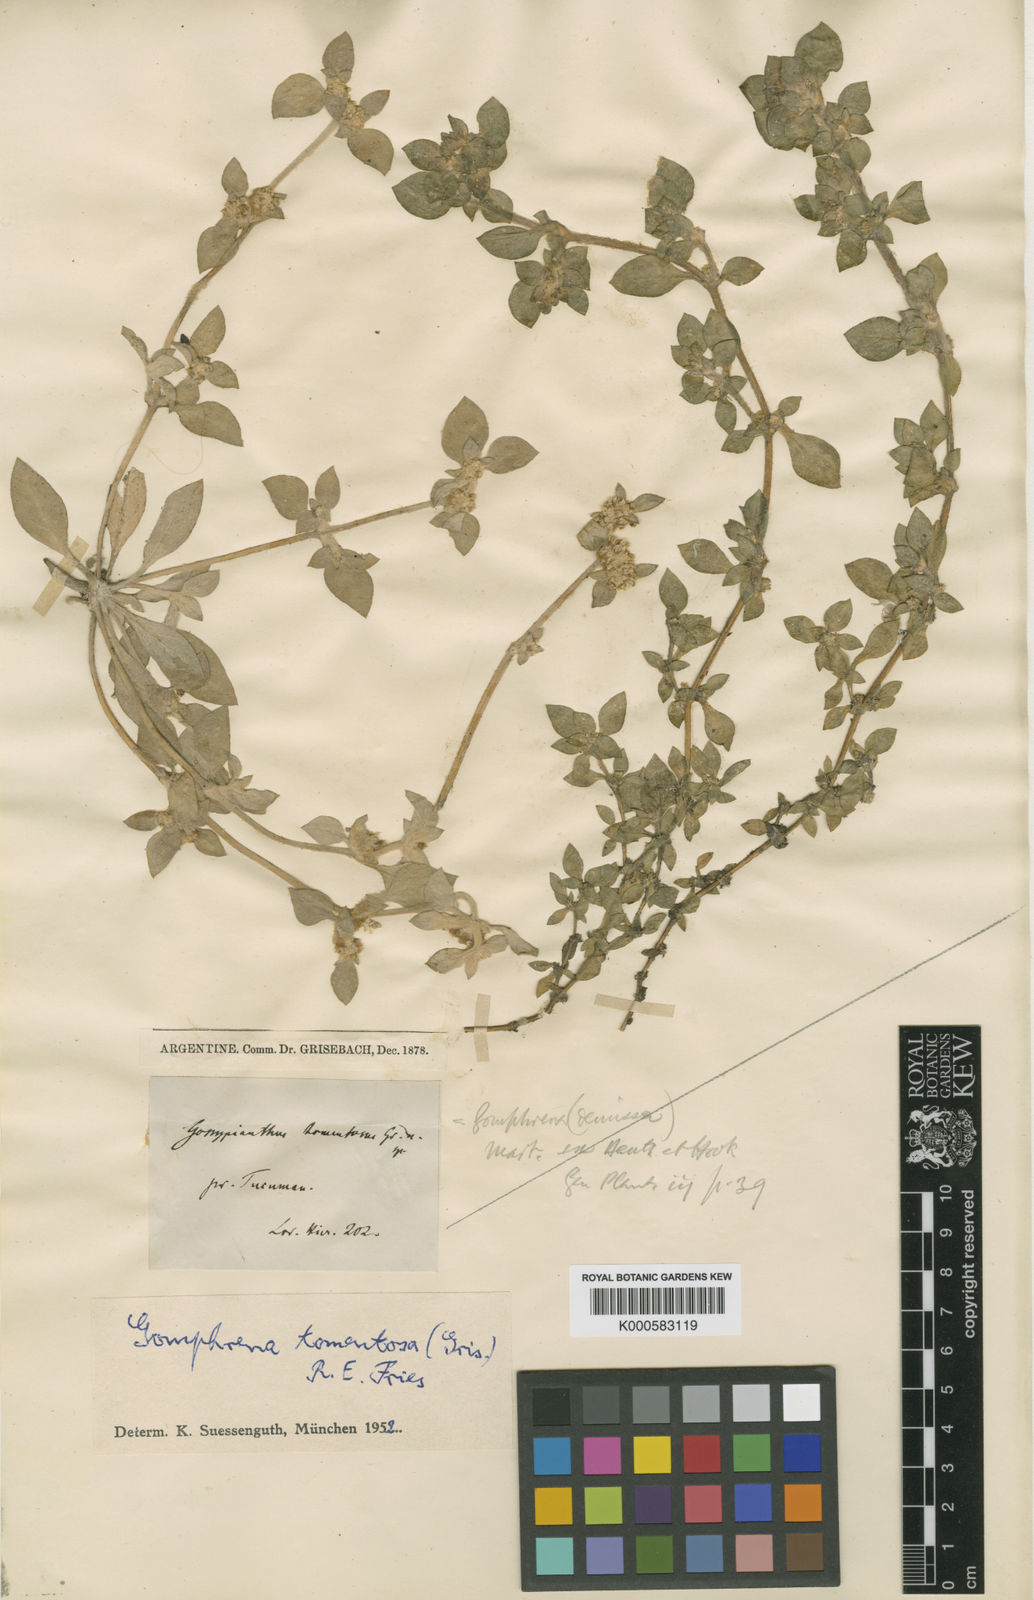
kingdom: Plantae
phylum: Tracheophyta
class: Magnoliopsida
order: Caryophyllales
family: Amaranthaceae
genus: Gomphrena
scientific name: Gomphrena tomentosa
